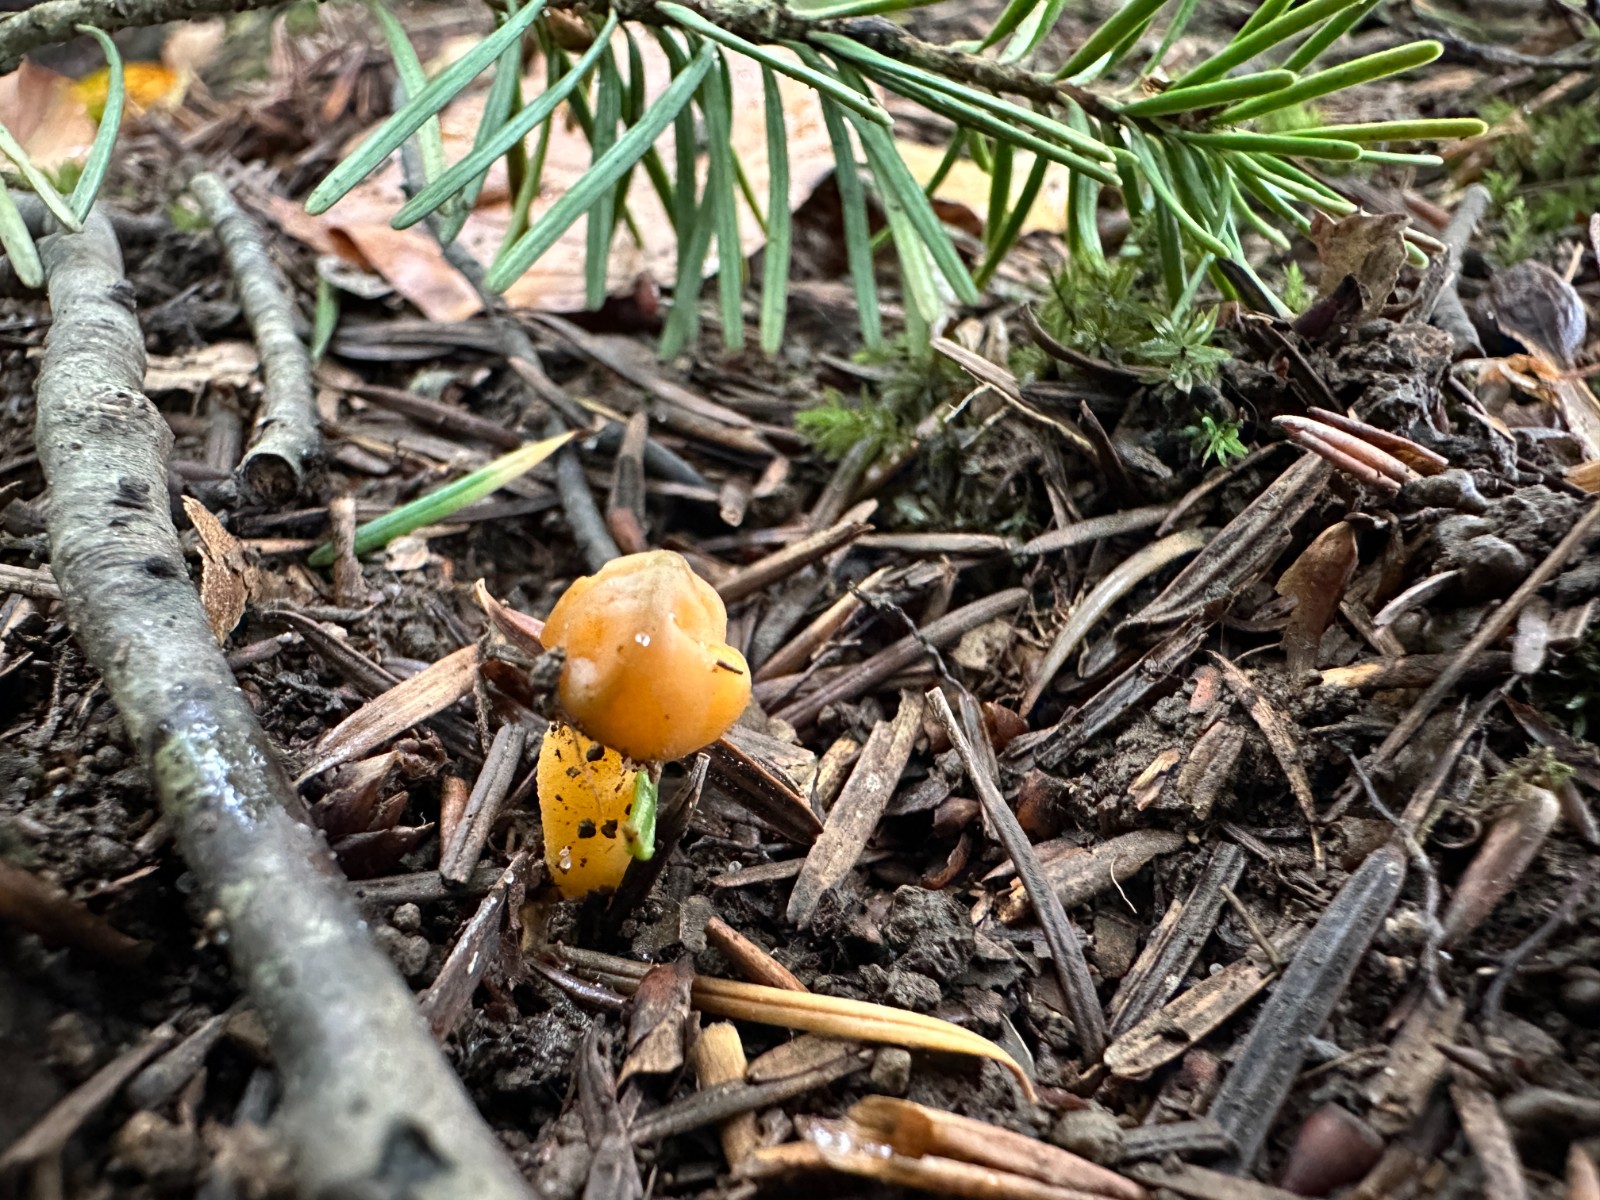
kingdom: Fungi
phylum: Ascomycota
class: Leotiomycetes
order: Leotiales
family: Leotiaceae
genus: Leotia
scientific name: Leotia lubrica
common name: ravsvamp
